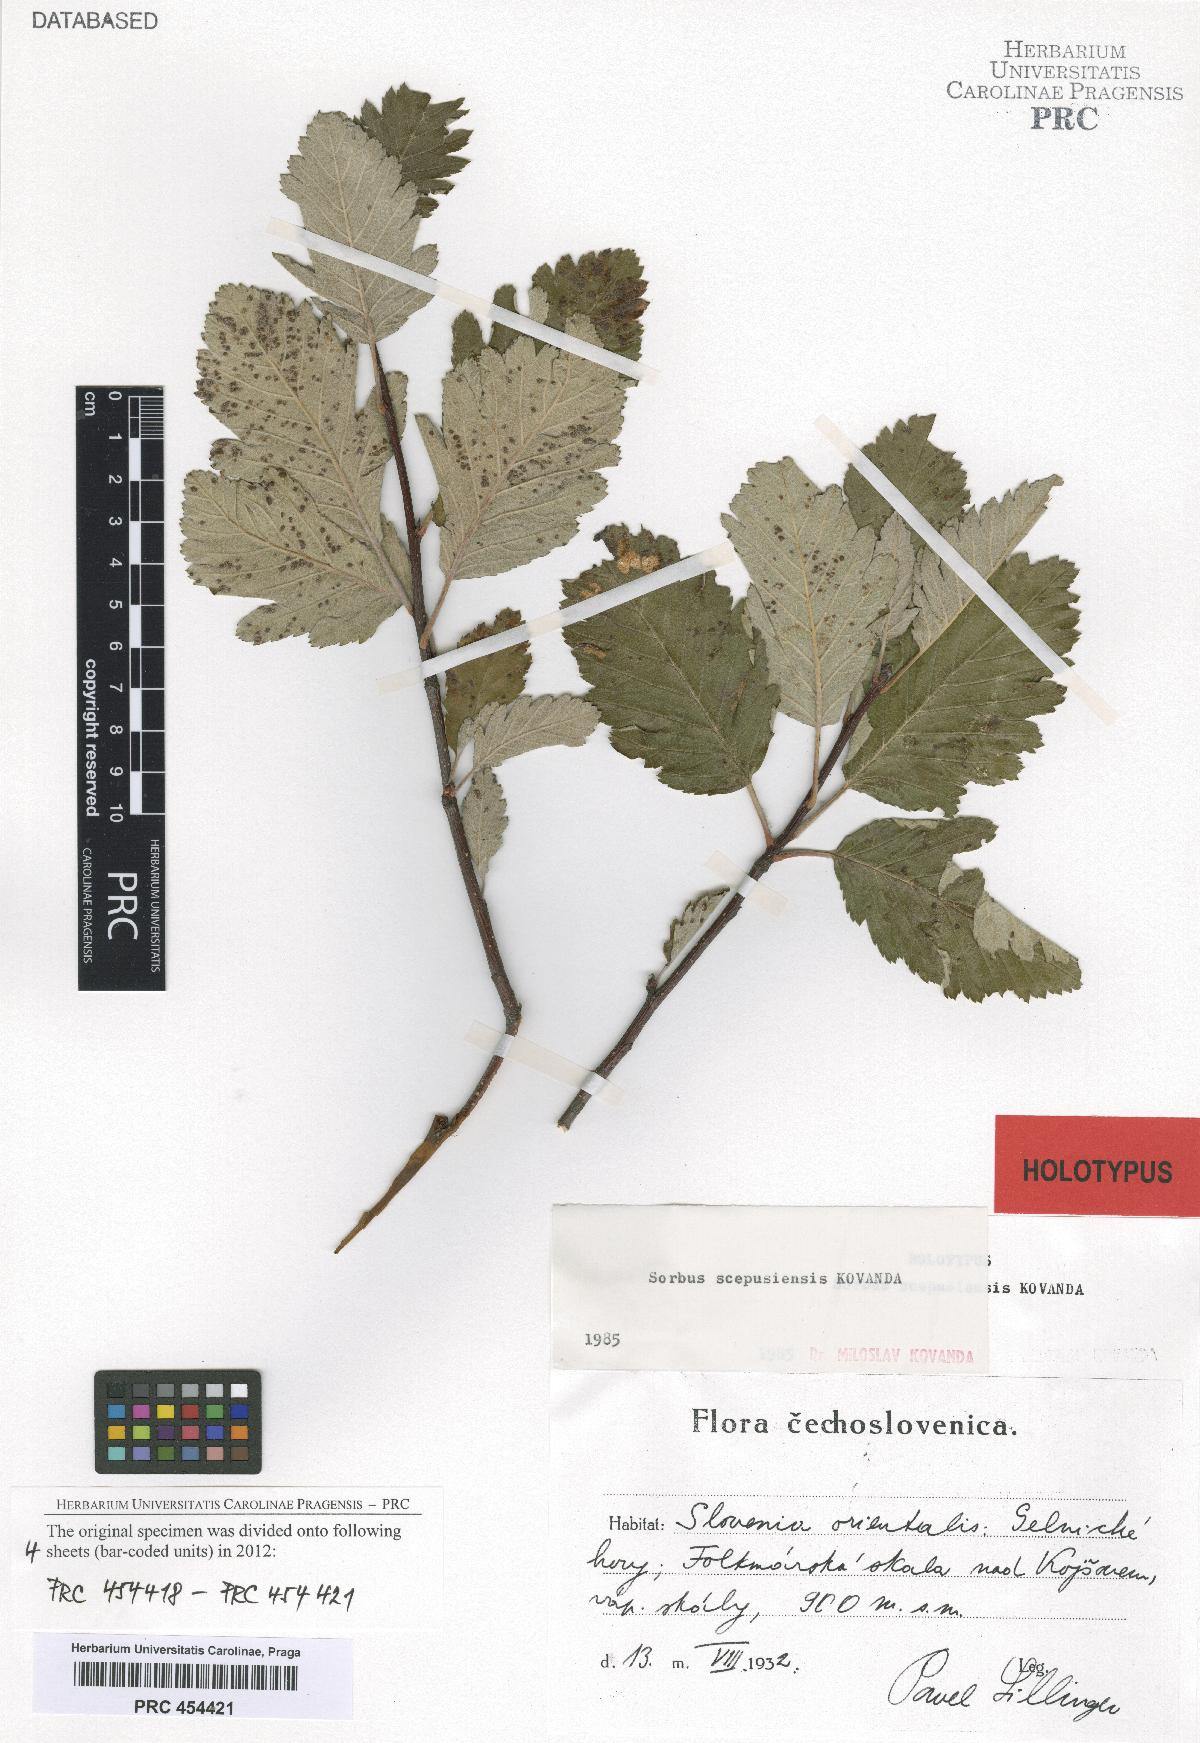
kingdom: Plantae
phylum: Tracheophyta
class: Magnoliopsida
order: Rosales
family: Rosaceae
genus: Hedlundia
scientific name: Hedlundia scepusiensis
